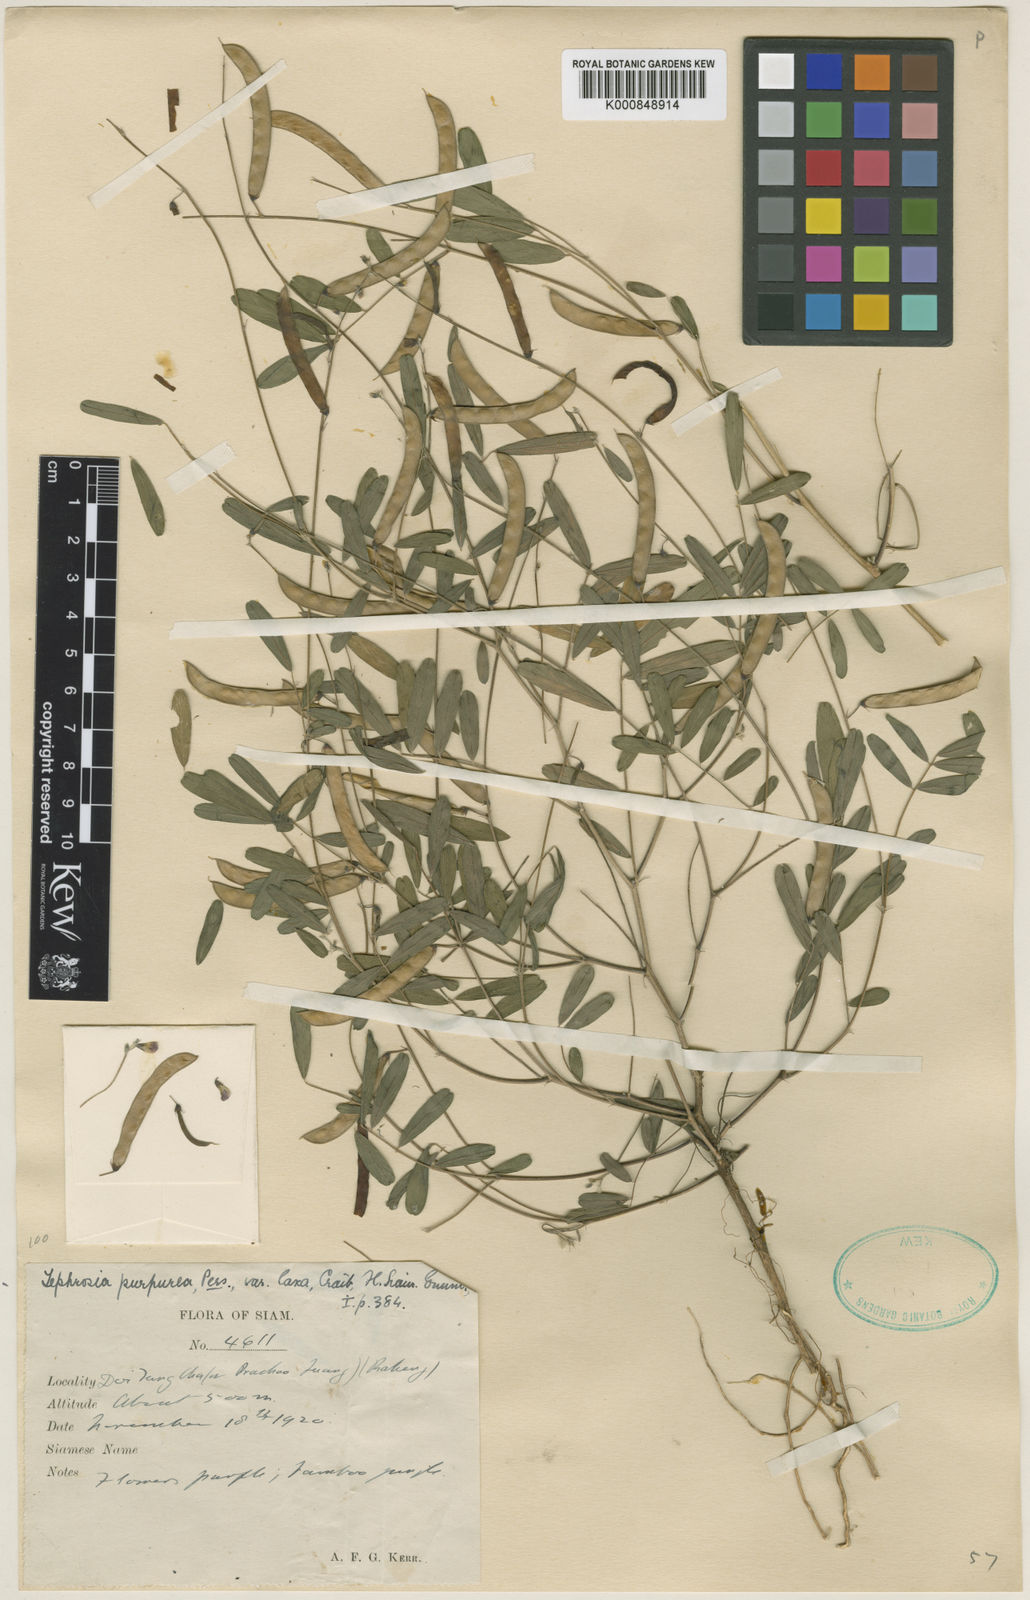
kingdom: Plantae
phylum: Tracheophyta
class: Magnoliopsida
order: Fabales
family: Fabaceae
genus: Tephrosia
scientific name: Tephrosia purpurea
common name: Fishpoison
